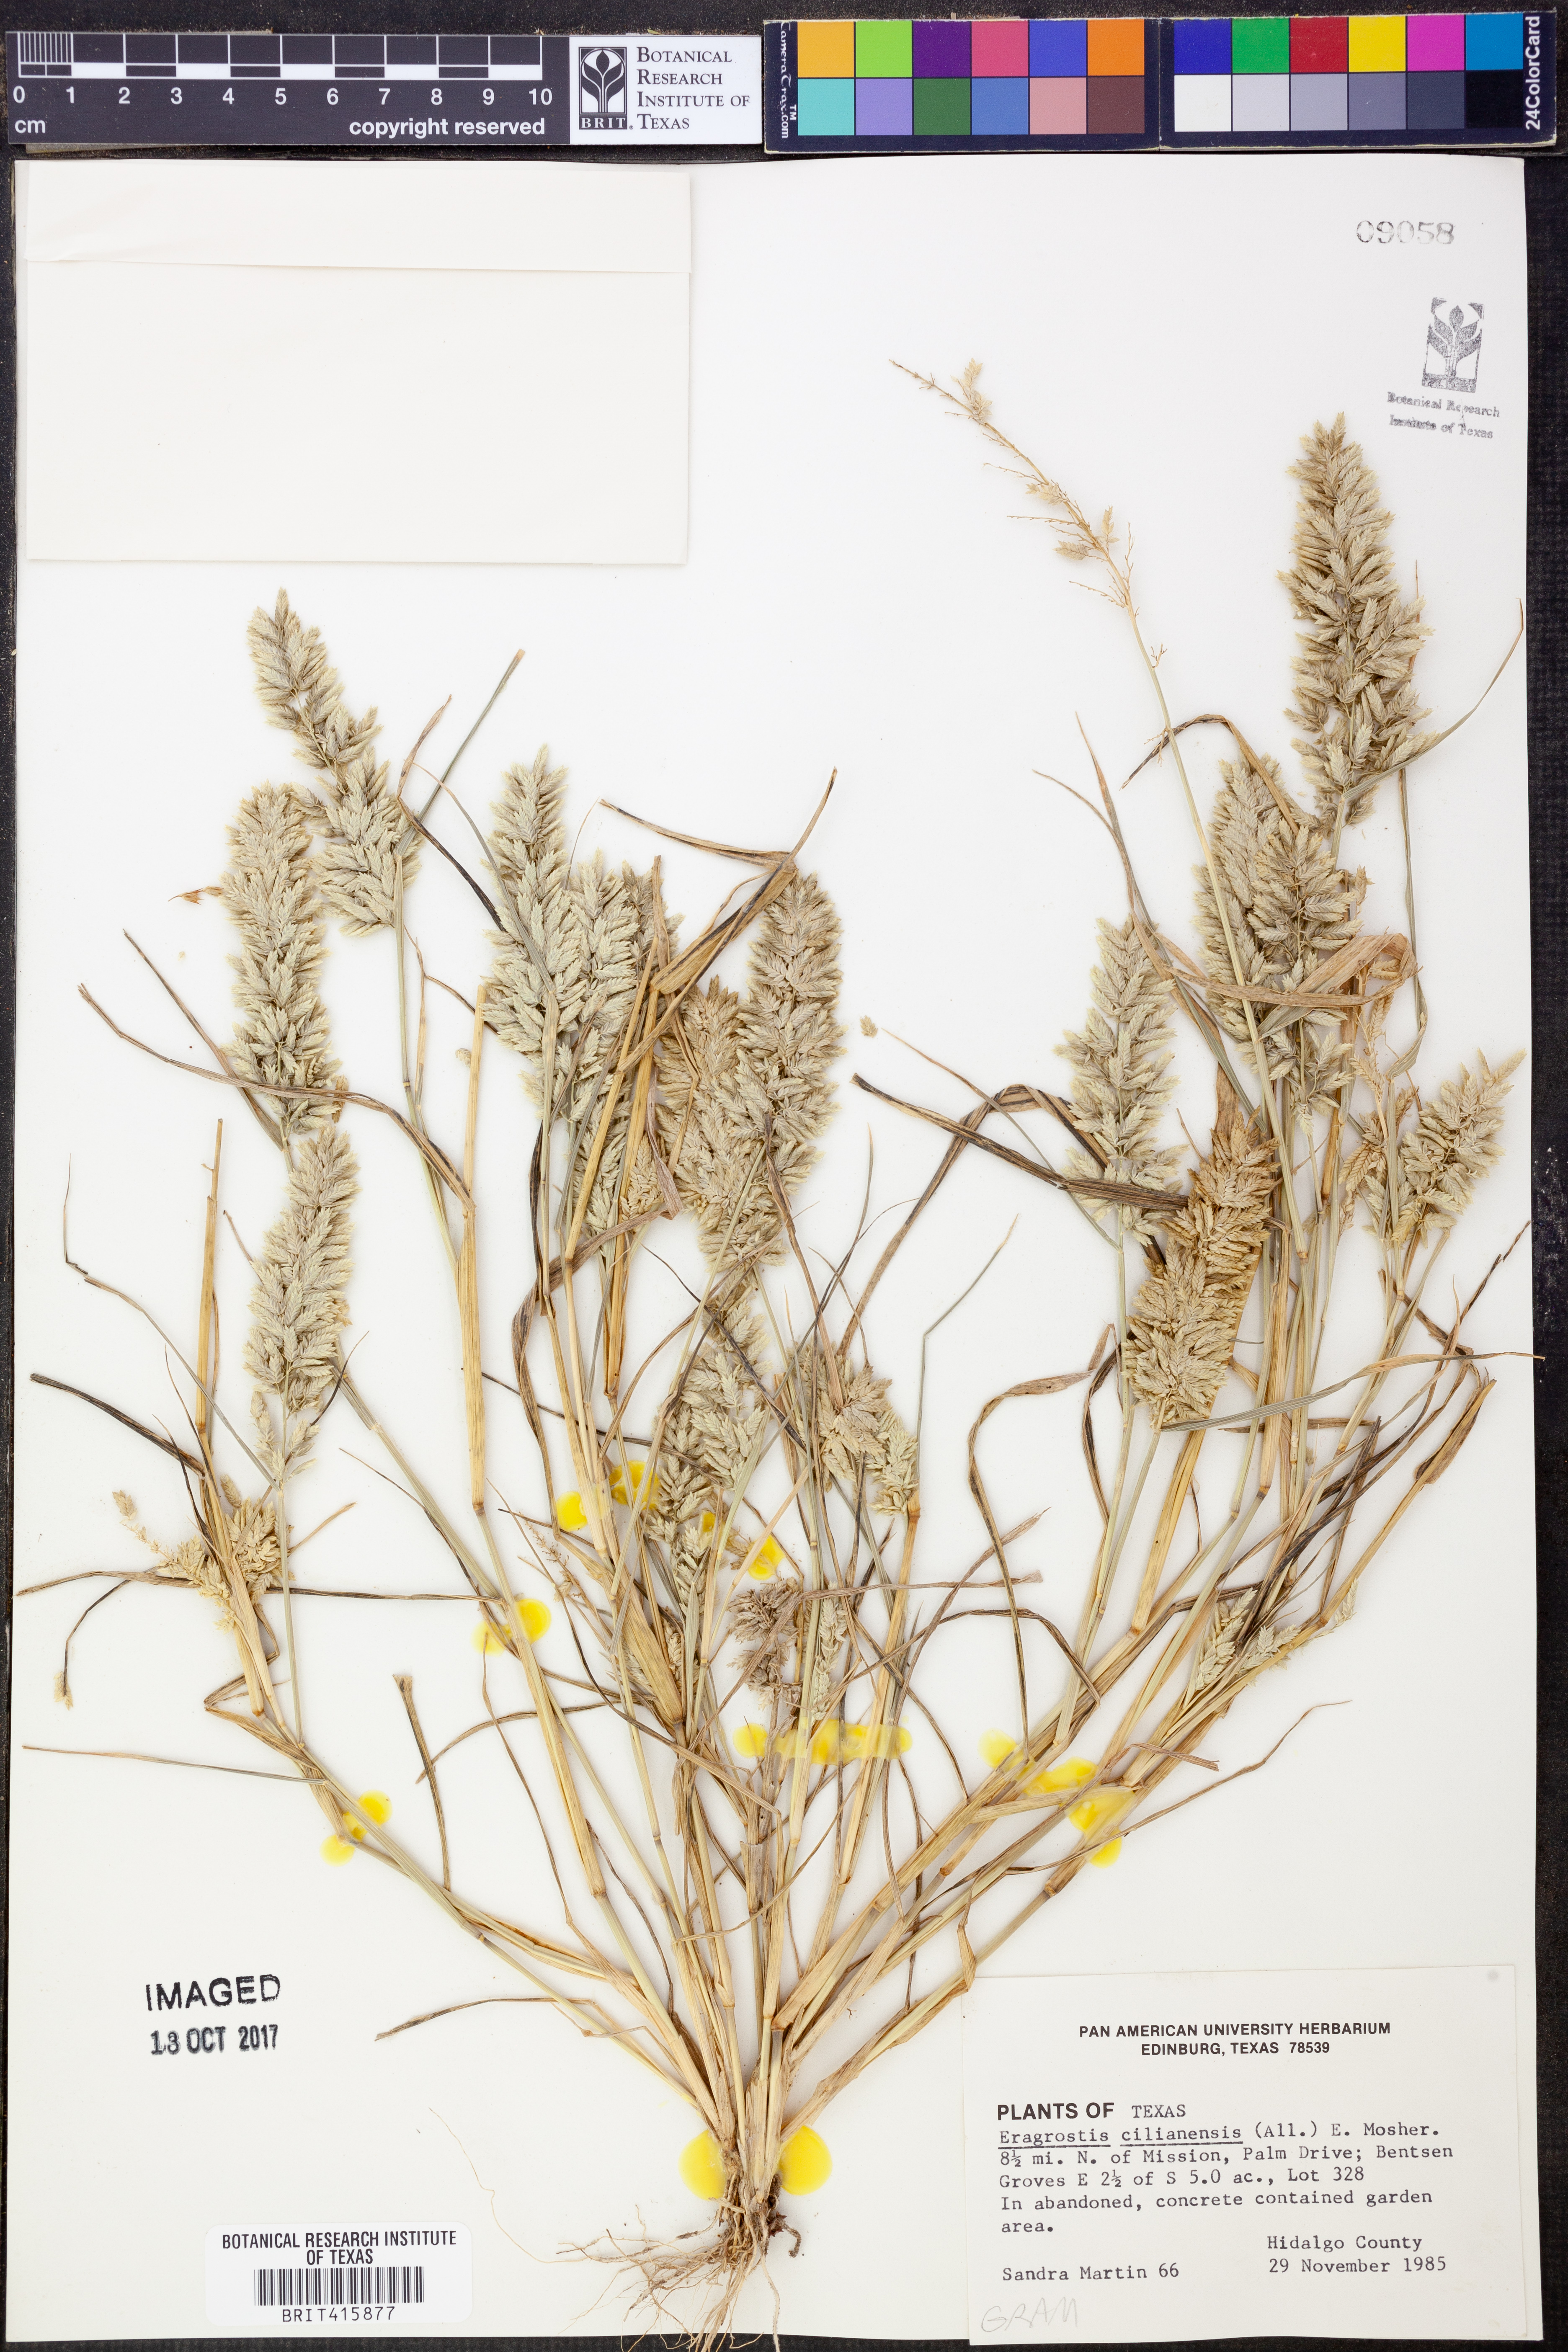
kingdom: Plantae
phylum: Tracheophyta
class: Liliopsida
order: Poales
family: Poaceae
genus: Eragrostis
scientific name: Eragrostis cilianensis
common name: Stinkgrass
